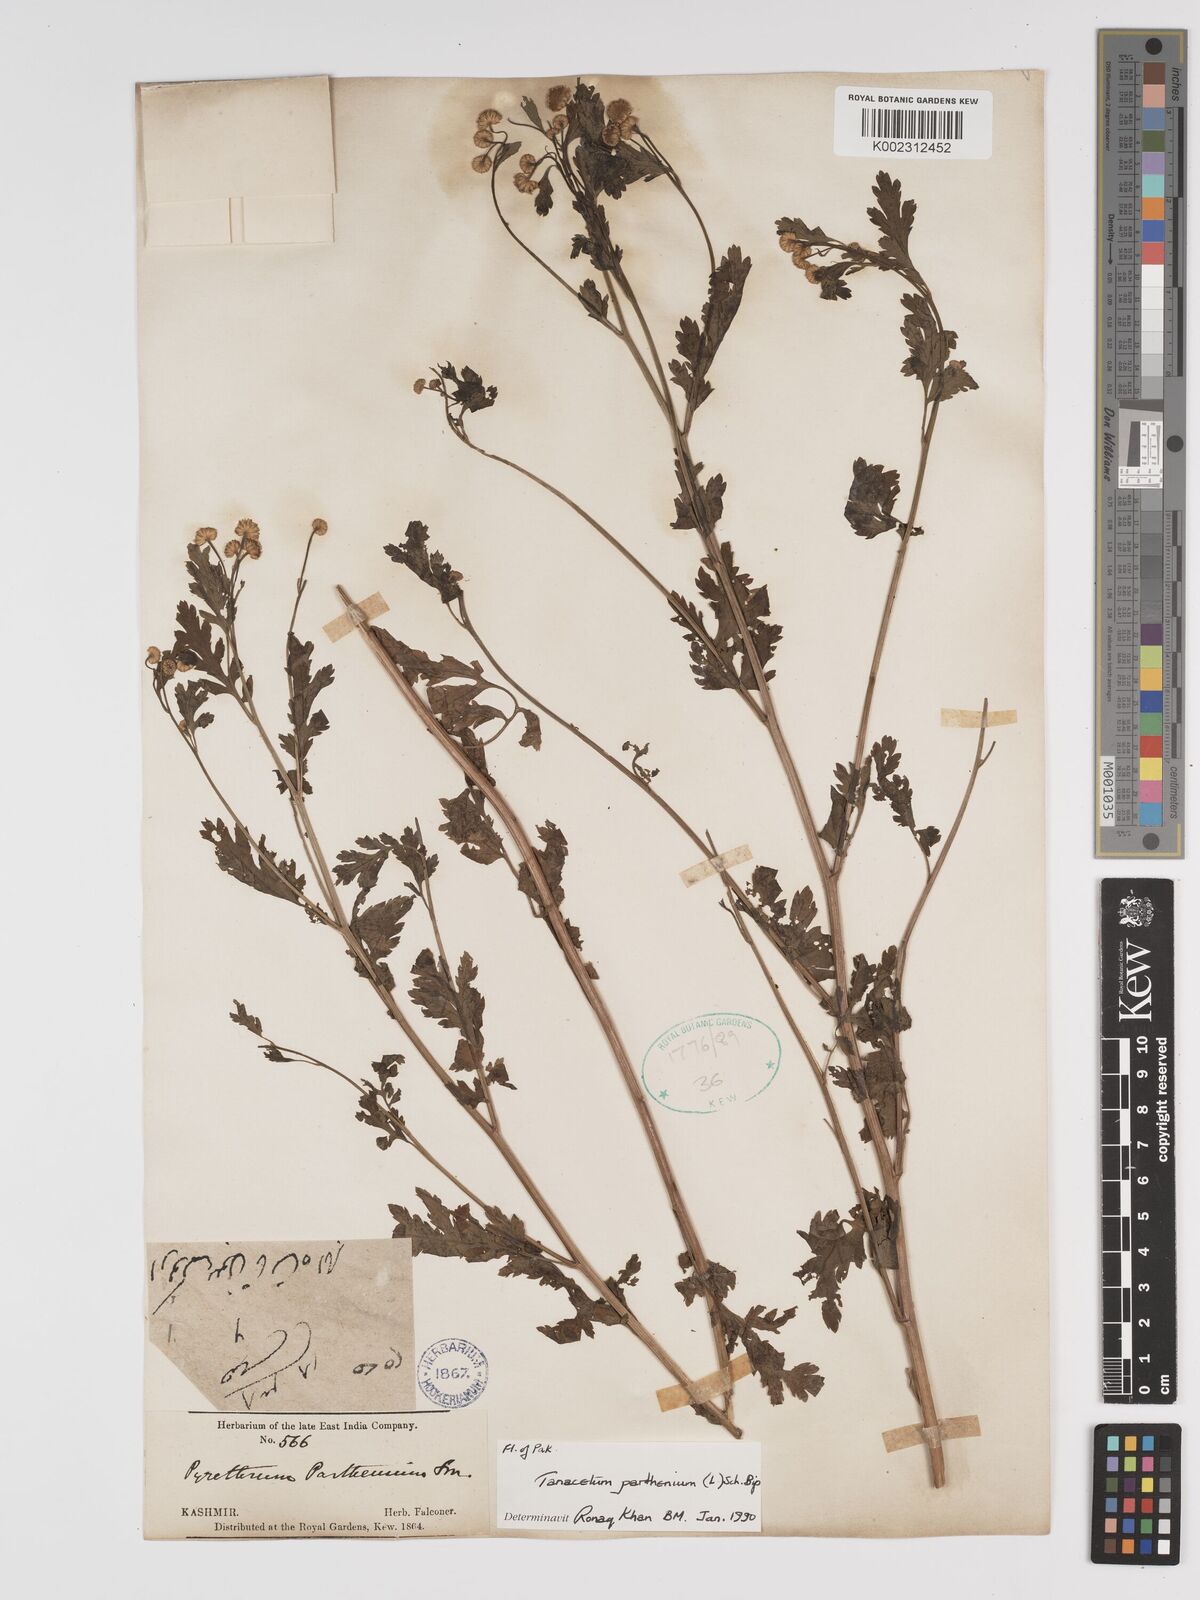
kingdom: Plantae
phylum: Tracheophyta
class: Magnoliopsida
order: Asterales
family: Asteraceae
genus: Tanacetum
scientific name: Tanacetum parthenium
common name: Feverfew
